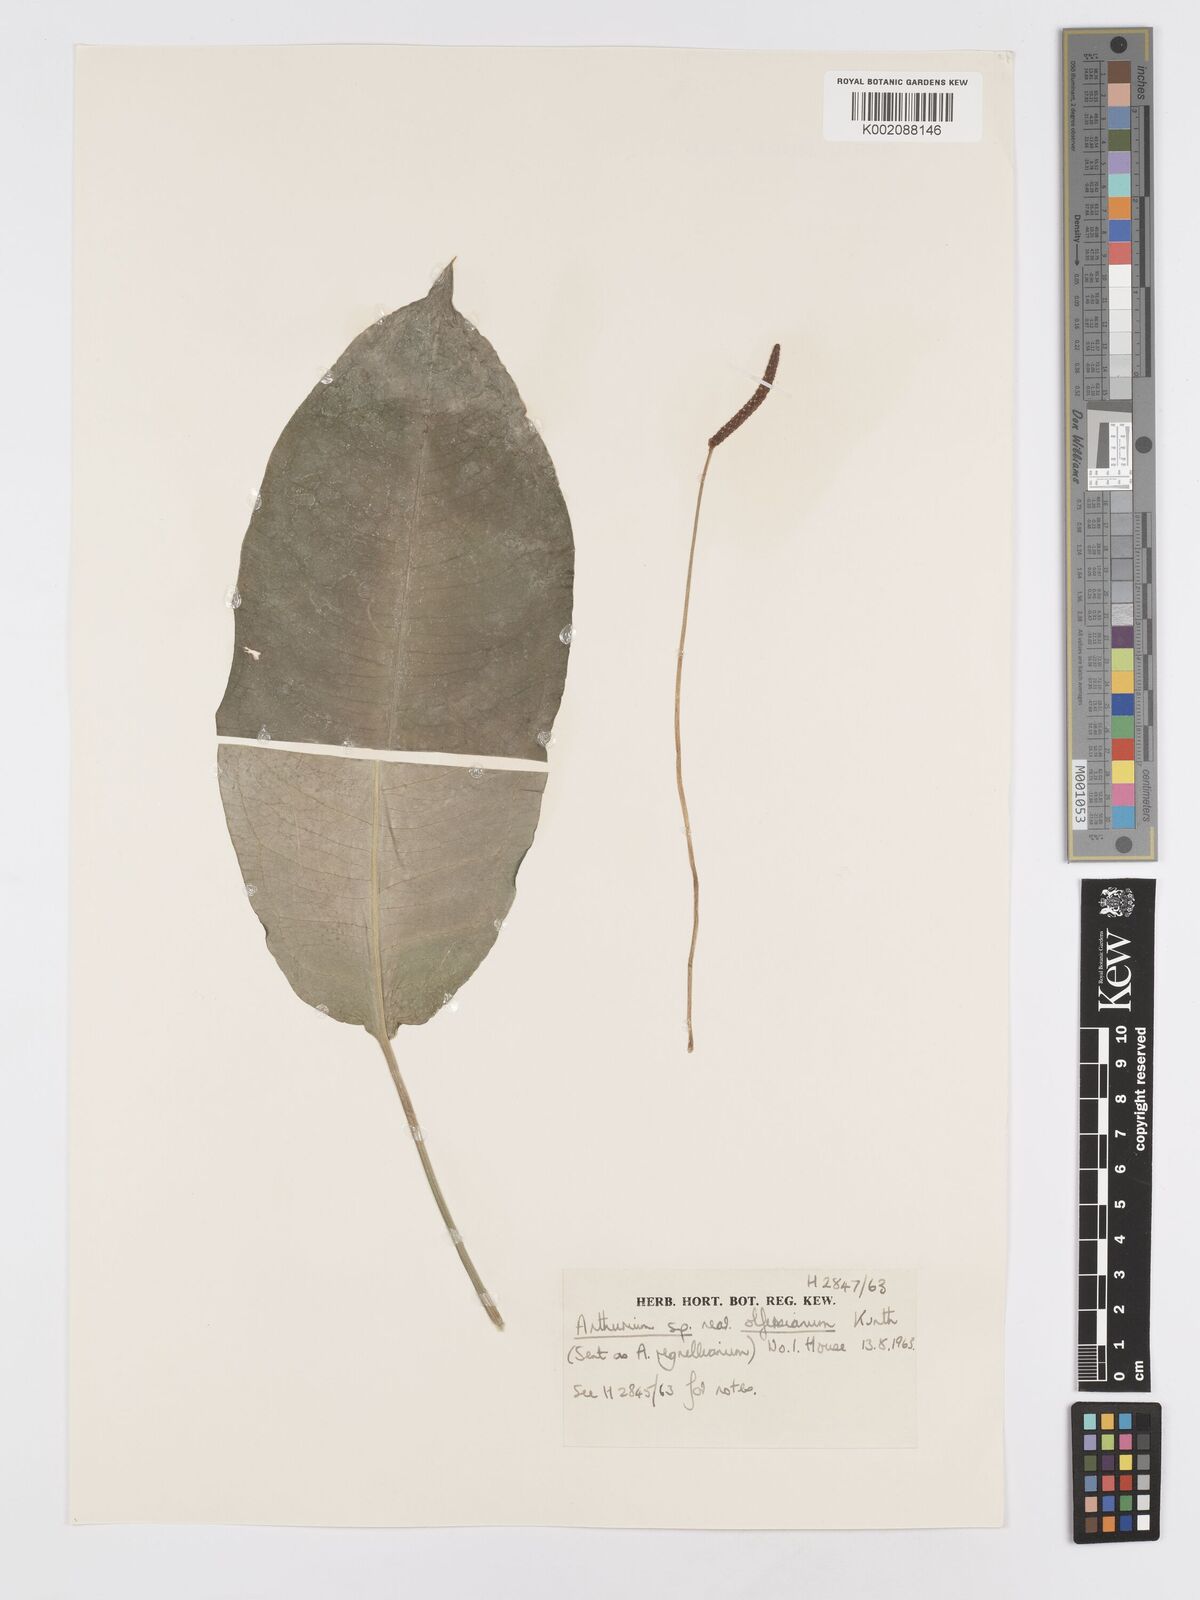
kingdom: Plantae
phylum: Tracheophyta
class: Liliopsida
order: Alismatales
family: Araceae
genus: Anthurium
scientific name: Anthurium
